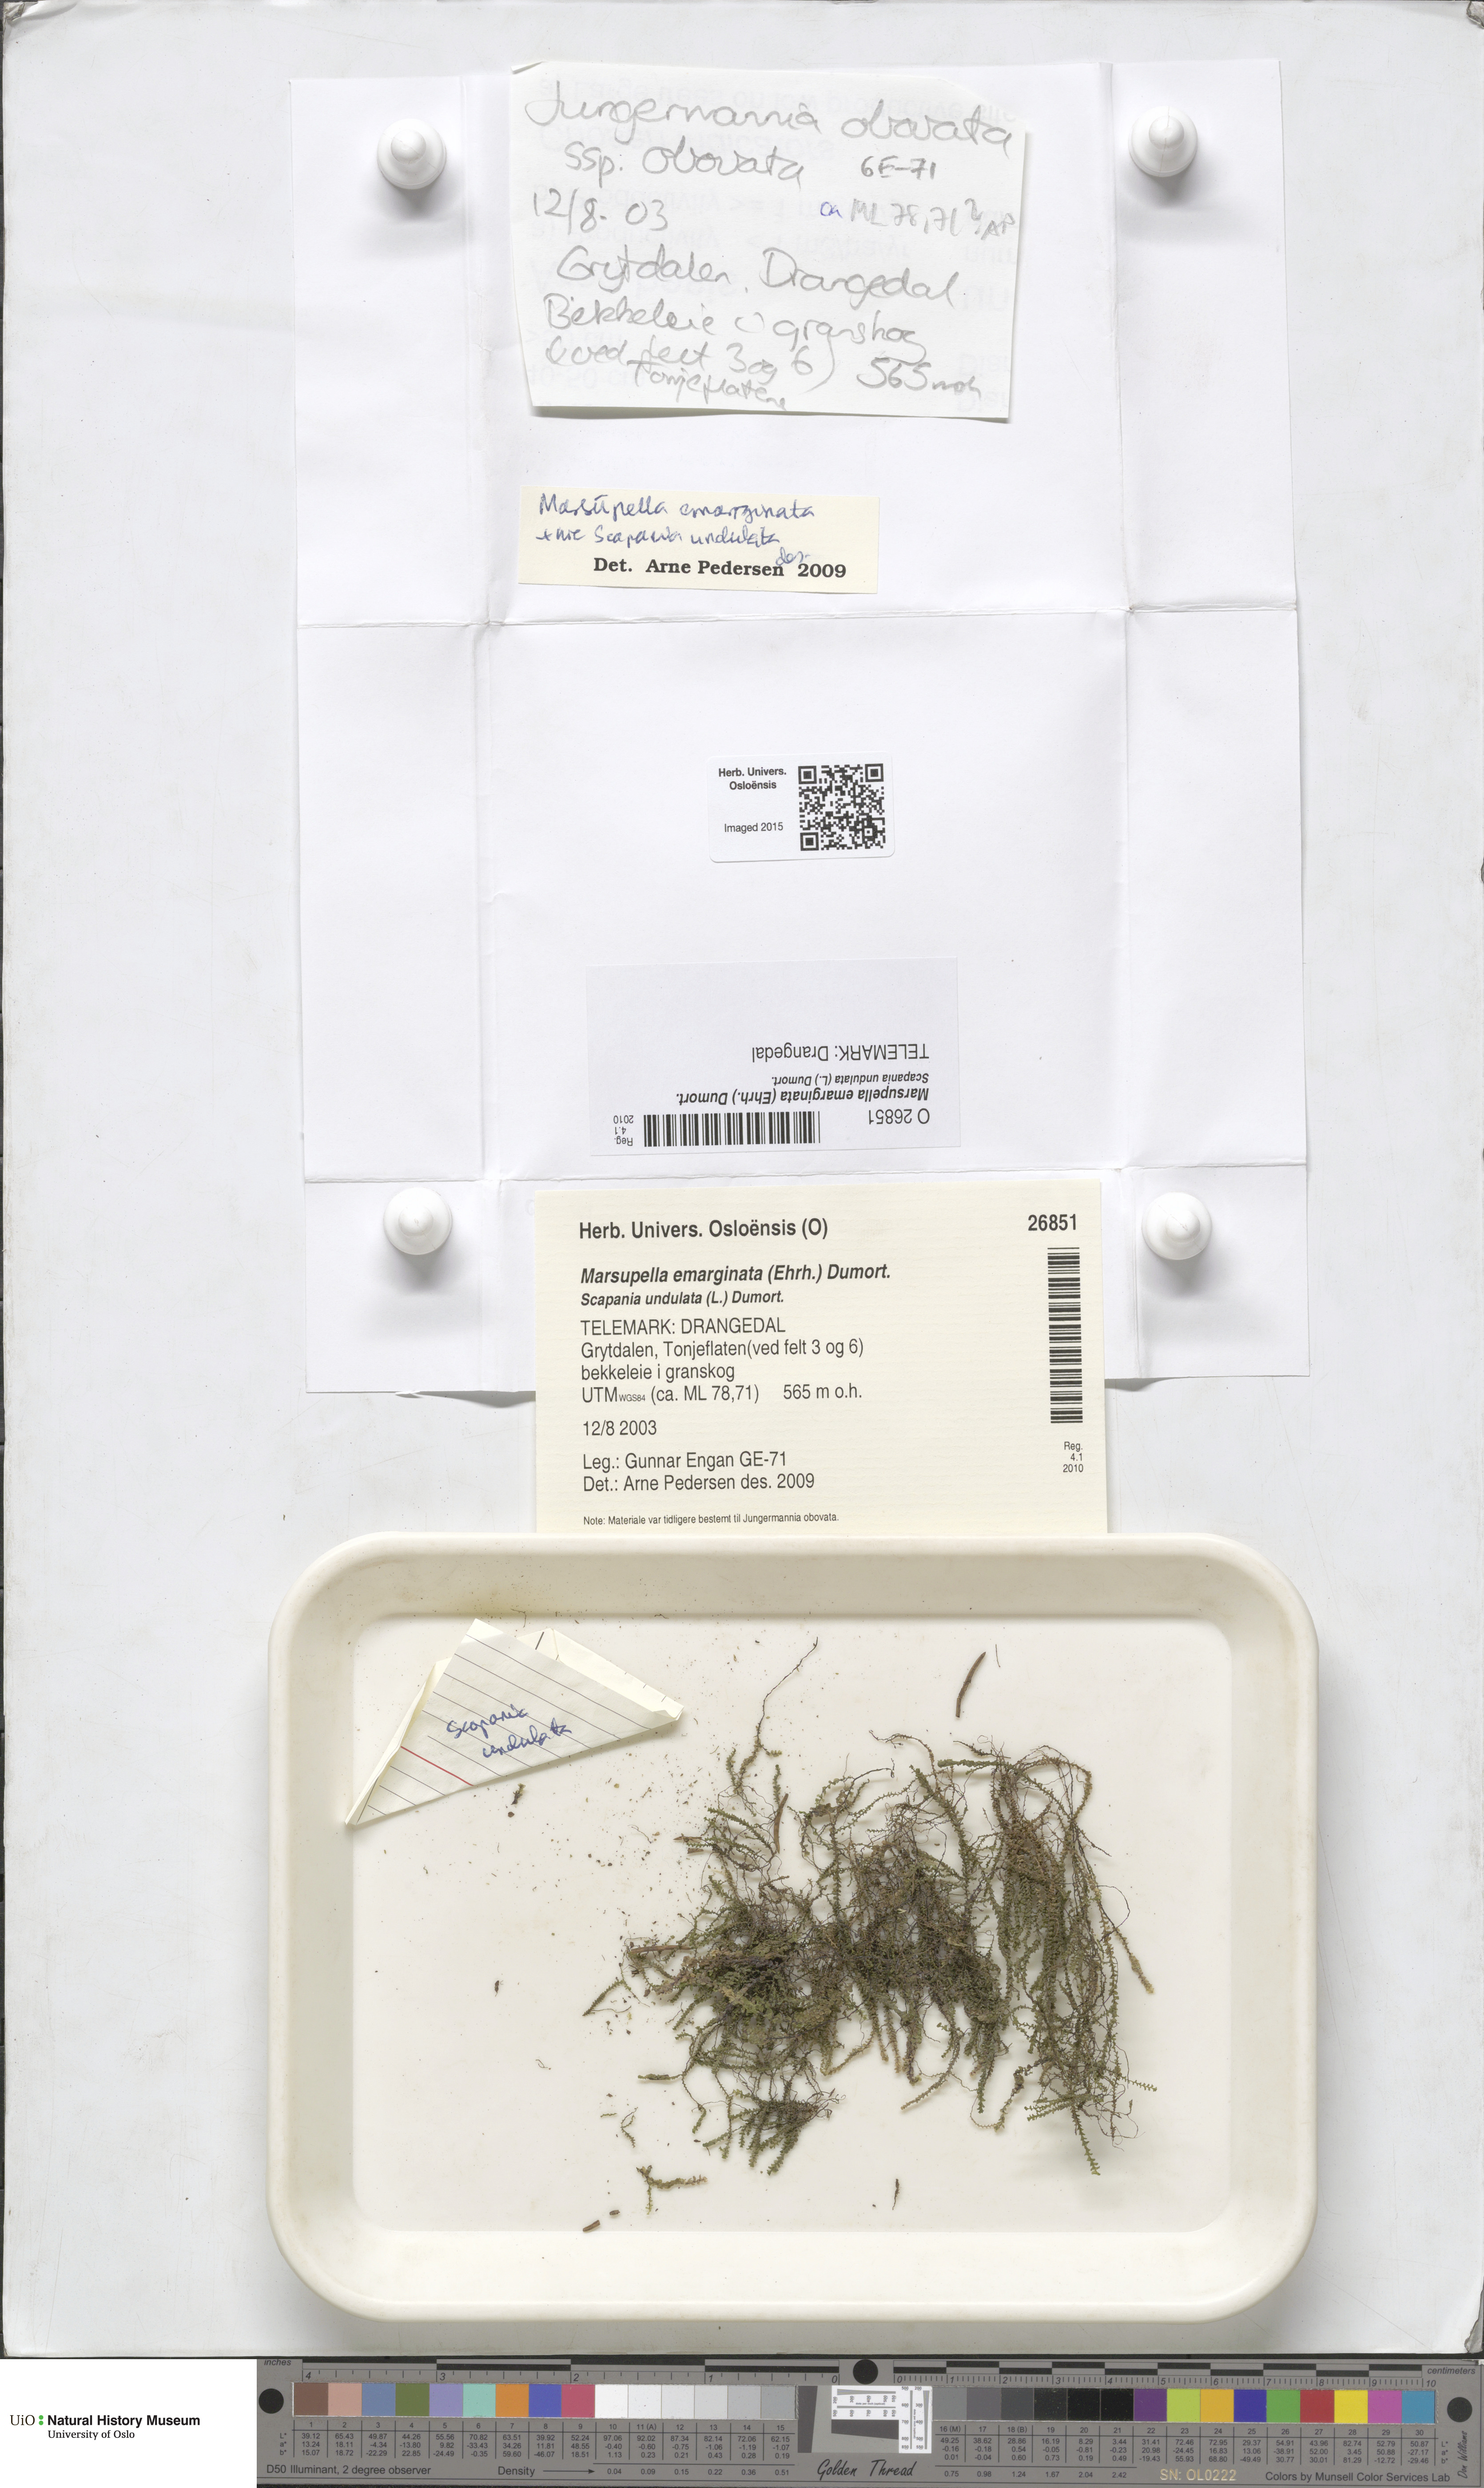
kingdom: Plantae
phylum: Marchantiophyta
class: Jungermanniopsida
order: Jungermanniales
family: Gymnomitriaceae
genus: Marsupella
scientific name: Marsupella emarginata
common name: Notched rustwort
